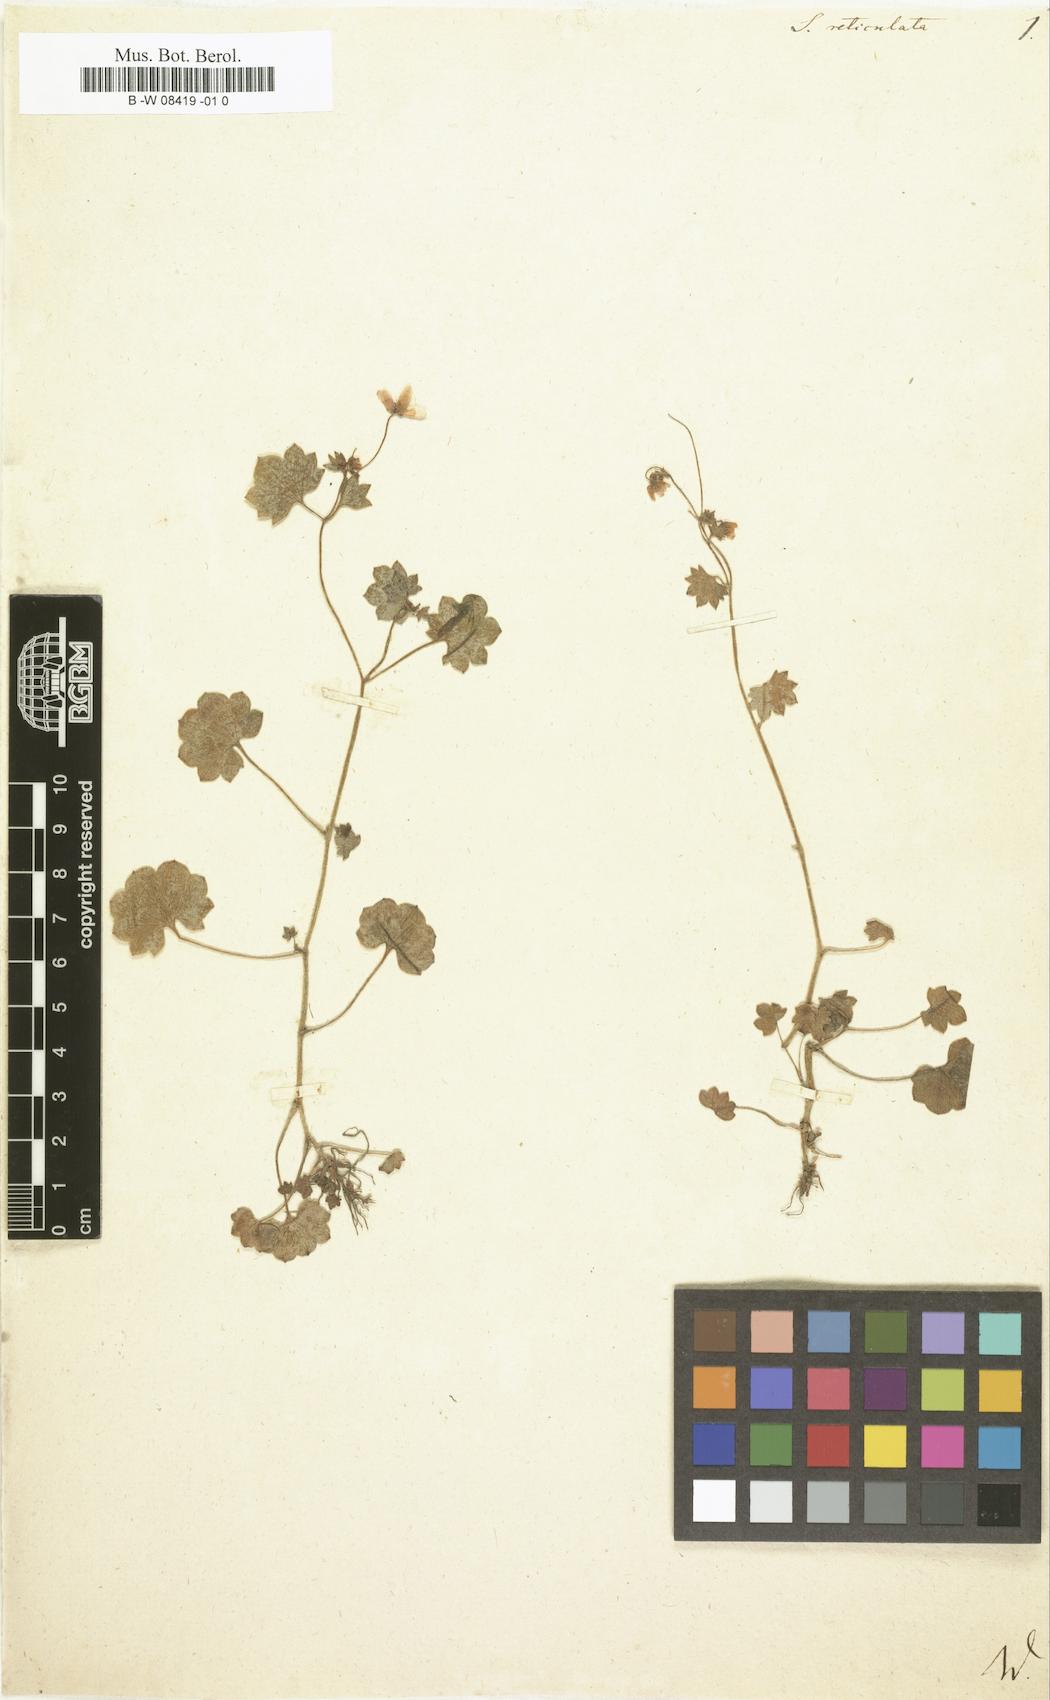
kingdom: Plantae
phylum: Tracheophyta
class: Magnoliopsida
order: Saxifragales
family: Saxifragaceae
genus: Saxifraga
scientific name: Saxifraga
